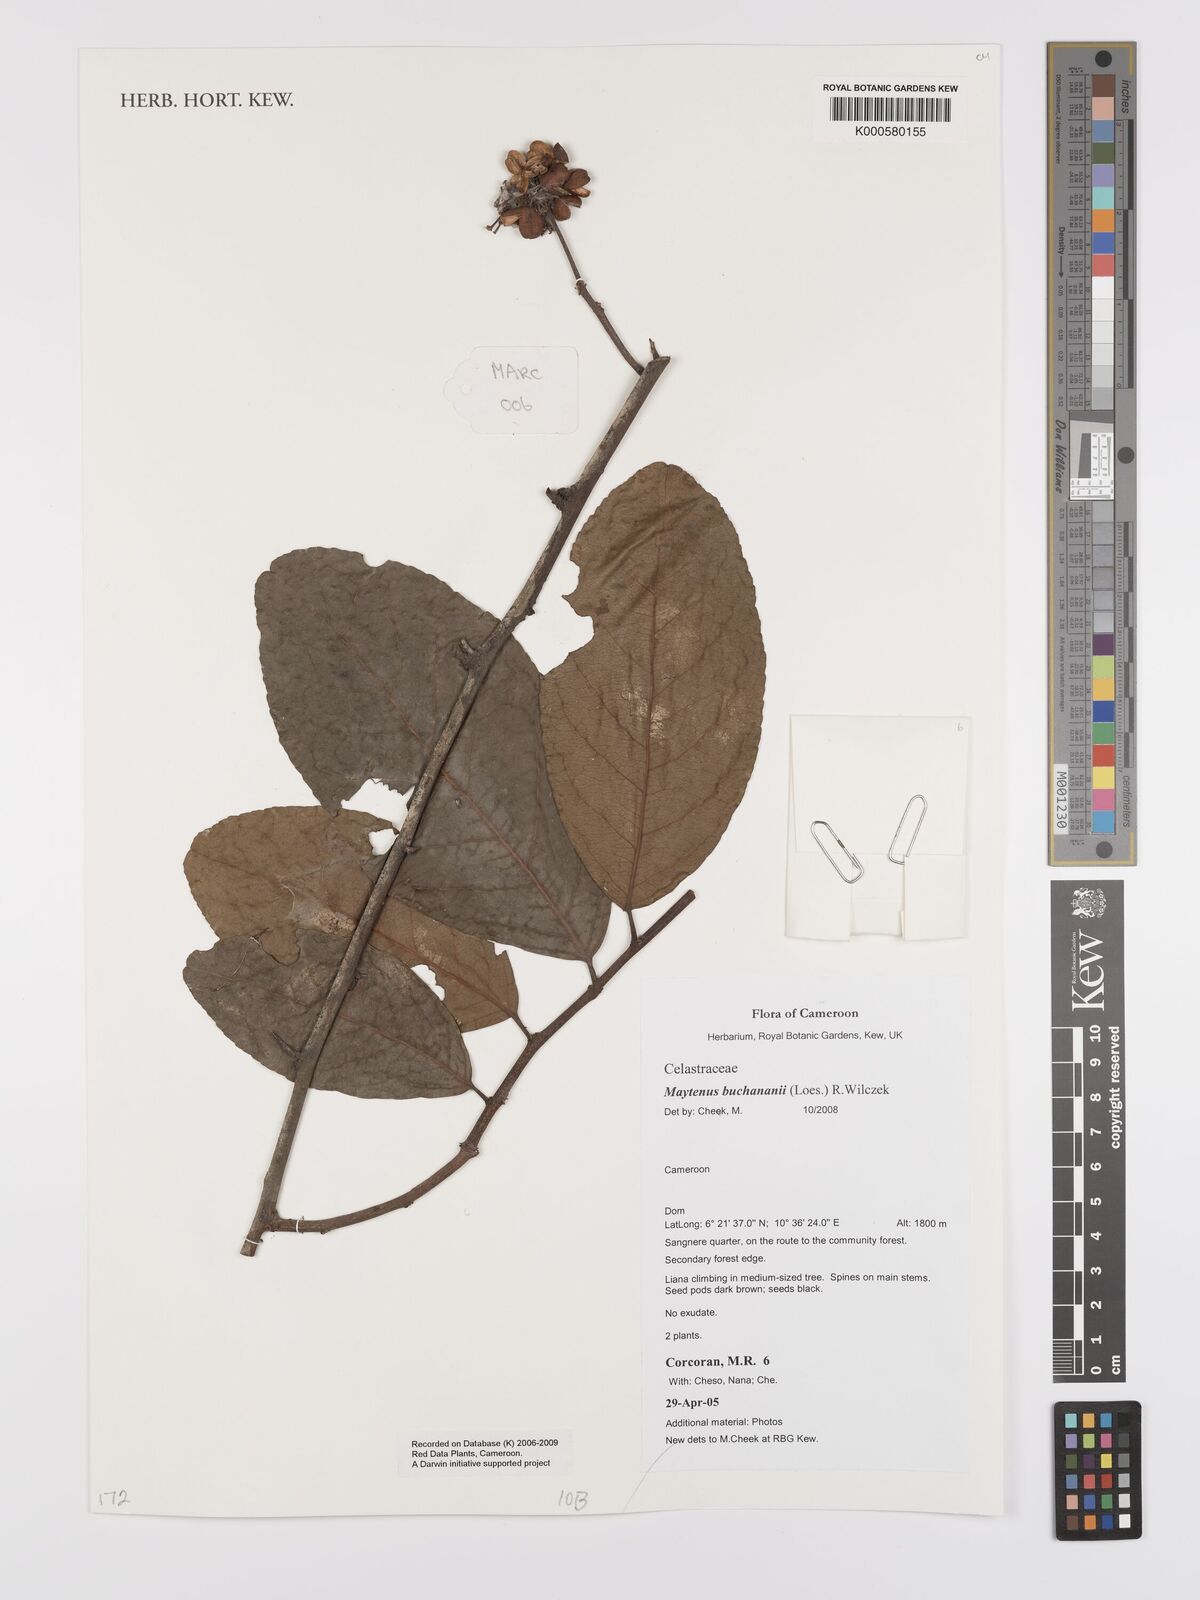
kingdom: Plantae
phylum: Tracheophyta
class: Magnoliopsida
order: Celastrales
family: Celastraceae
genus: Gymnosporia
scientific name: Gymnosporia buchananii
